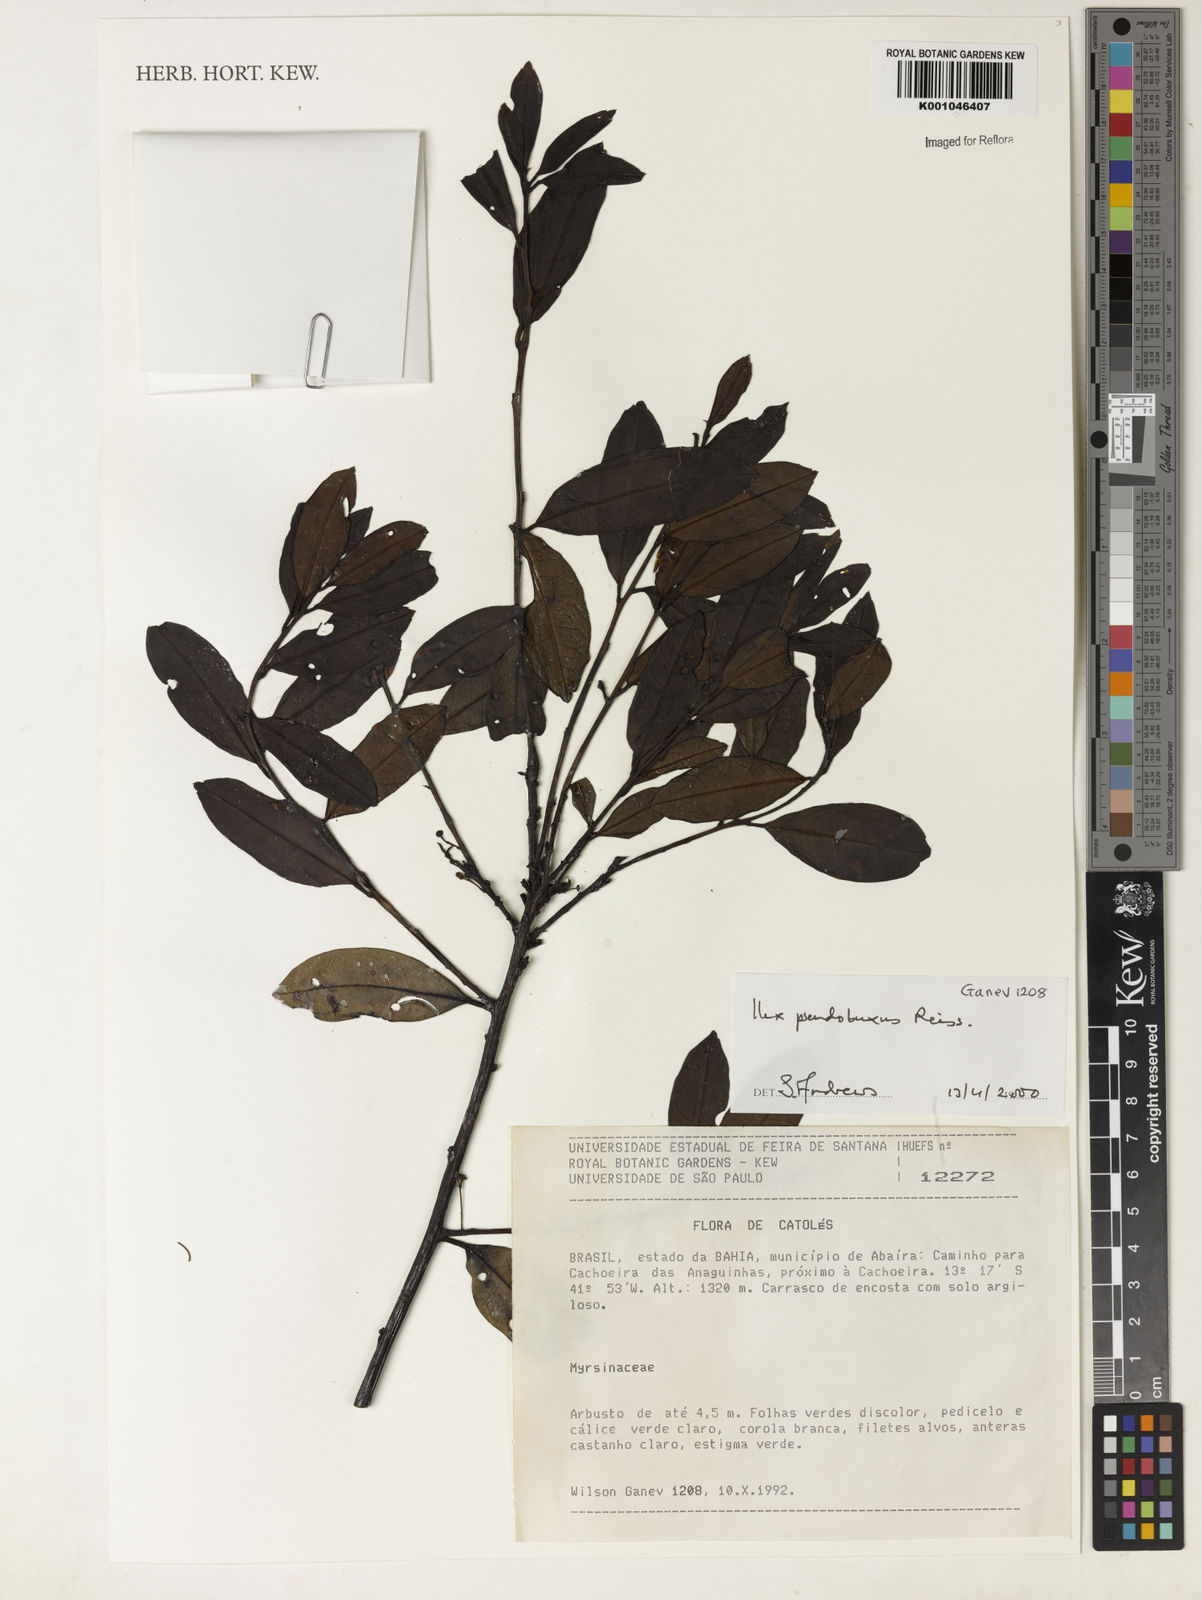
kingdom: Plantae
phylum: Tracheophyta
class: Magnoliopsida
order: Aquifoliales
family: Aquifoliaceae
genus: Ilex
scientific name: Ilex pseudobuxus
